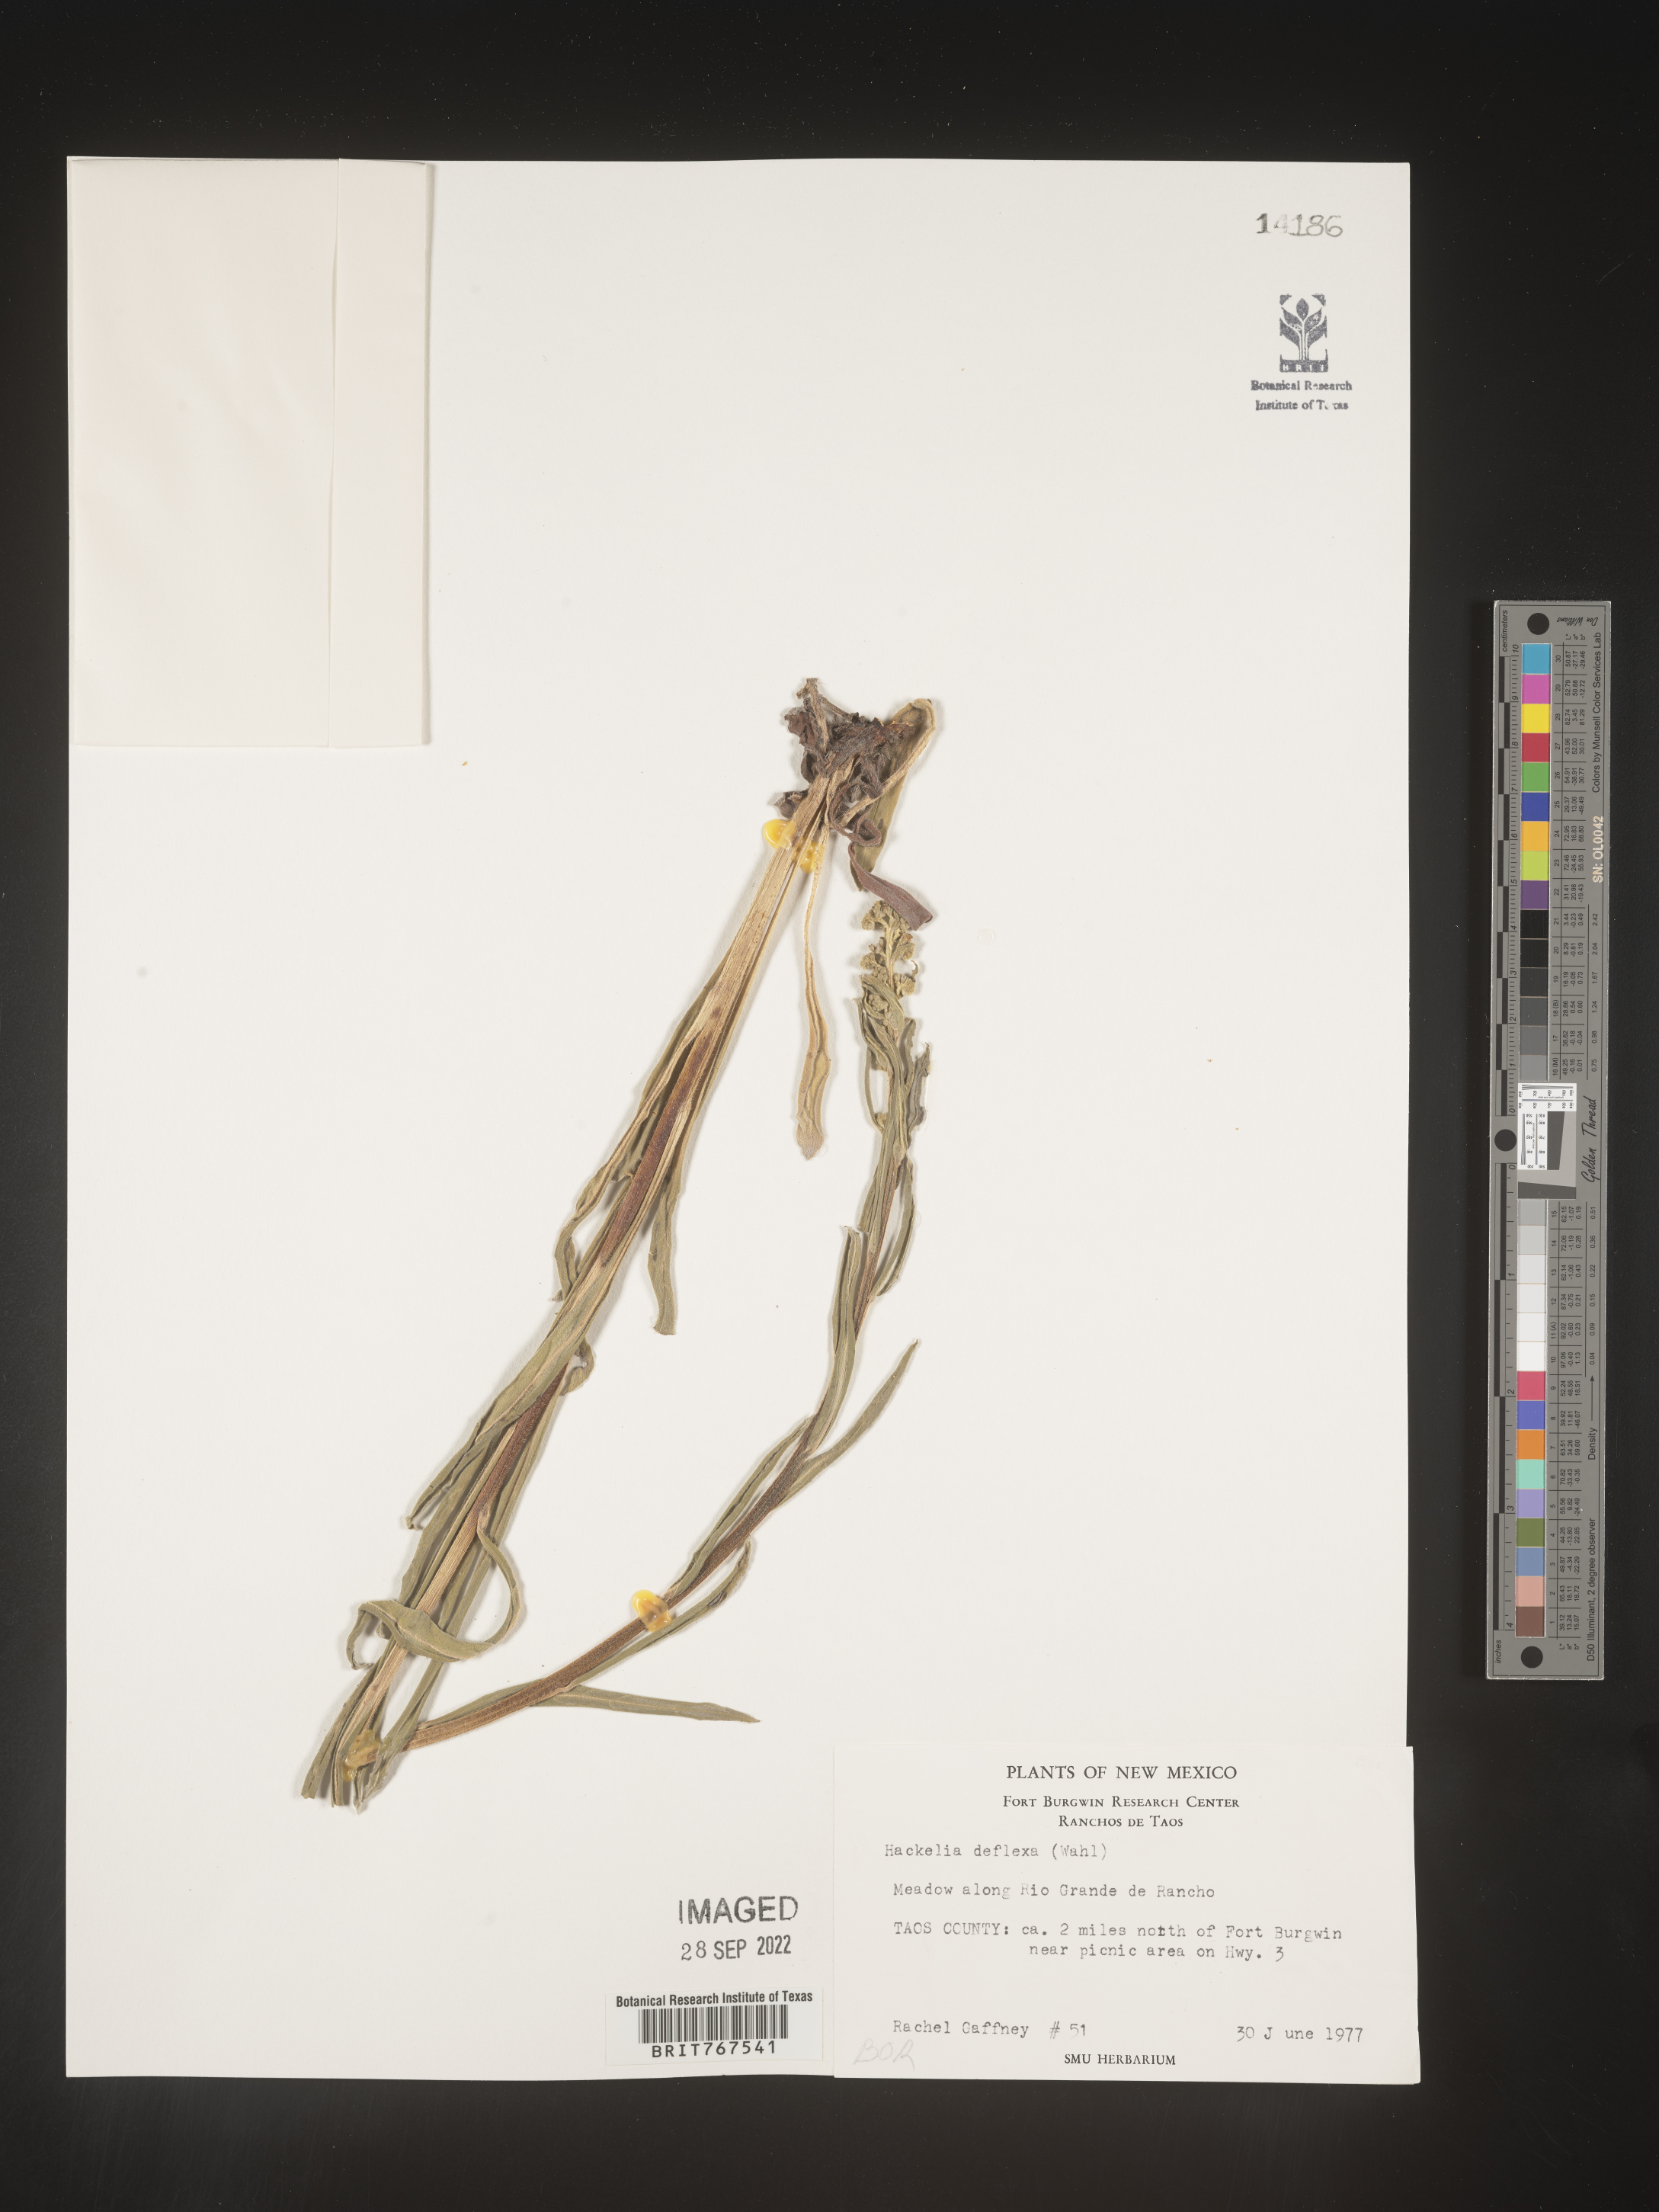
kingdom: Plantae
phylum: Tracheophyta
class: Magnoliopsida
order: Boraginales
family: Boraginaceae
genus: Hackelia
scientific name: Hackelia
